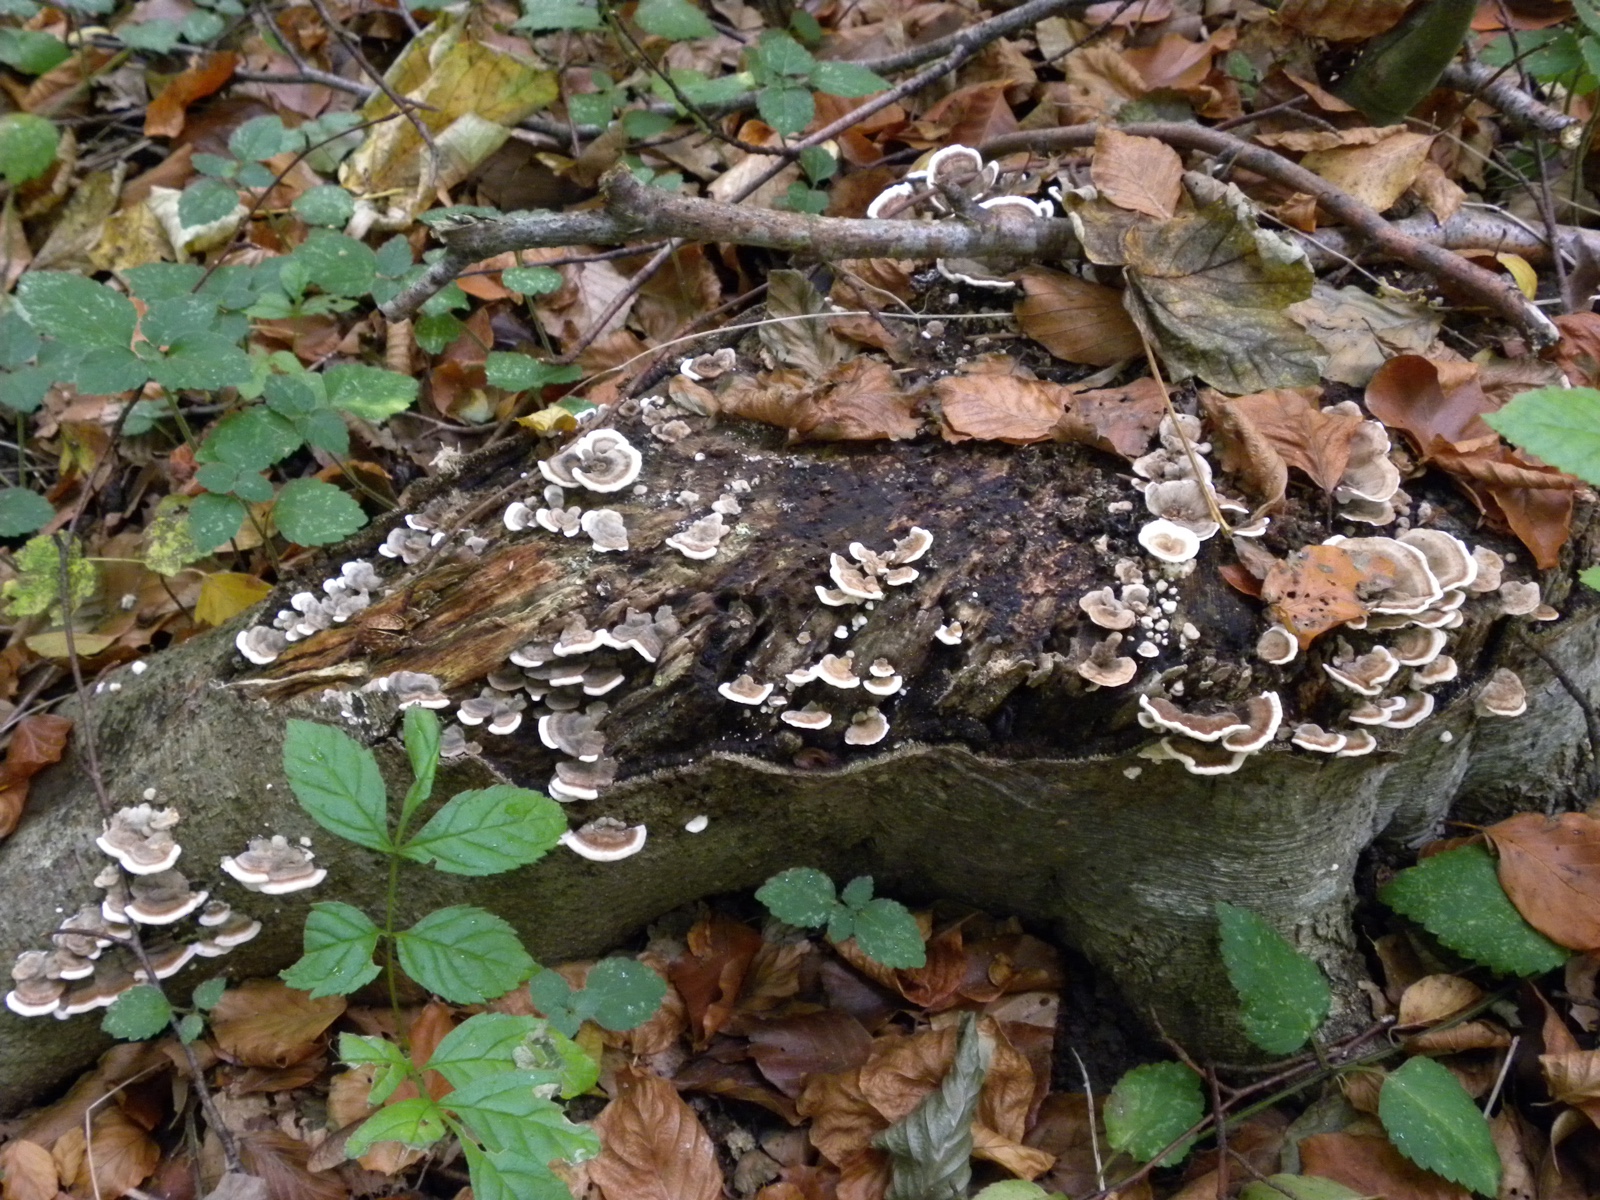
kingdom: Fungi
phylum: Basidiomycota
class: Agaricomycetes
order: Polyporales
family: Polyporaceae
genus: Trametes
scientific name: Trametes versicolor
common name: broget læderporesvamp
